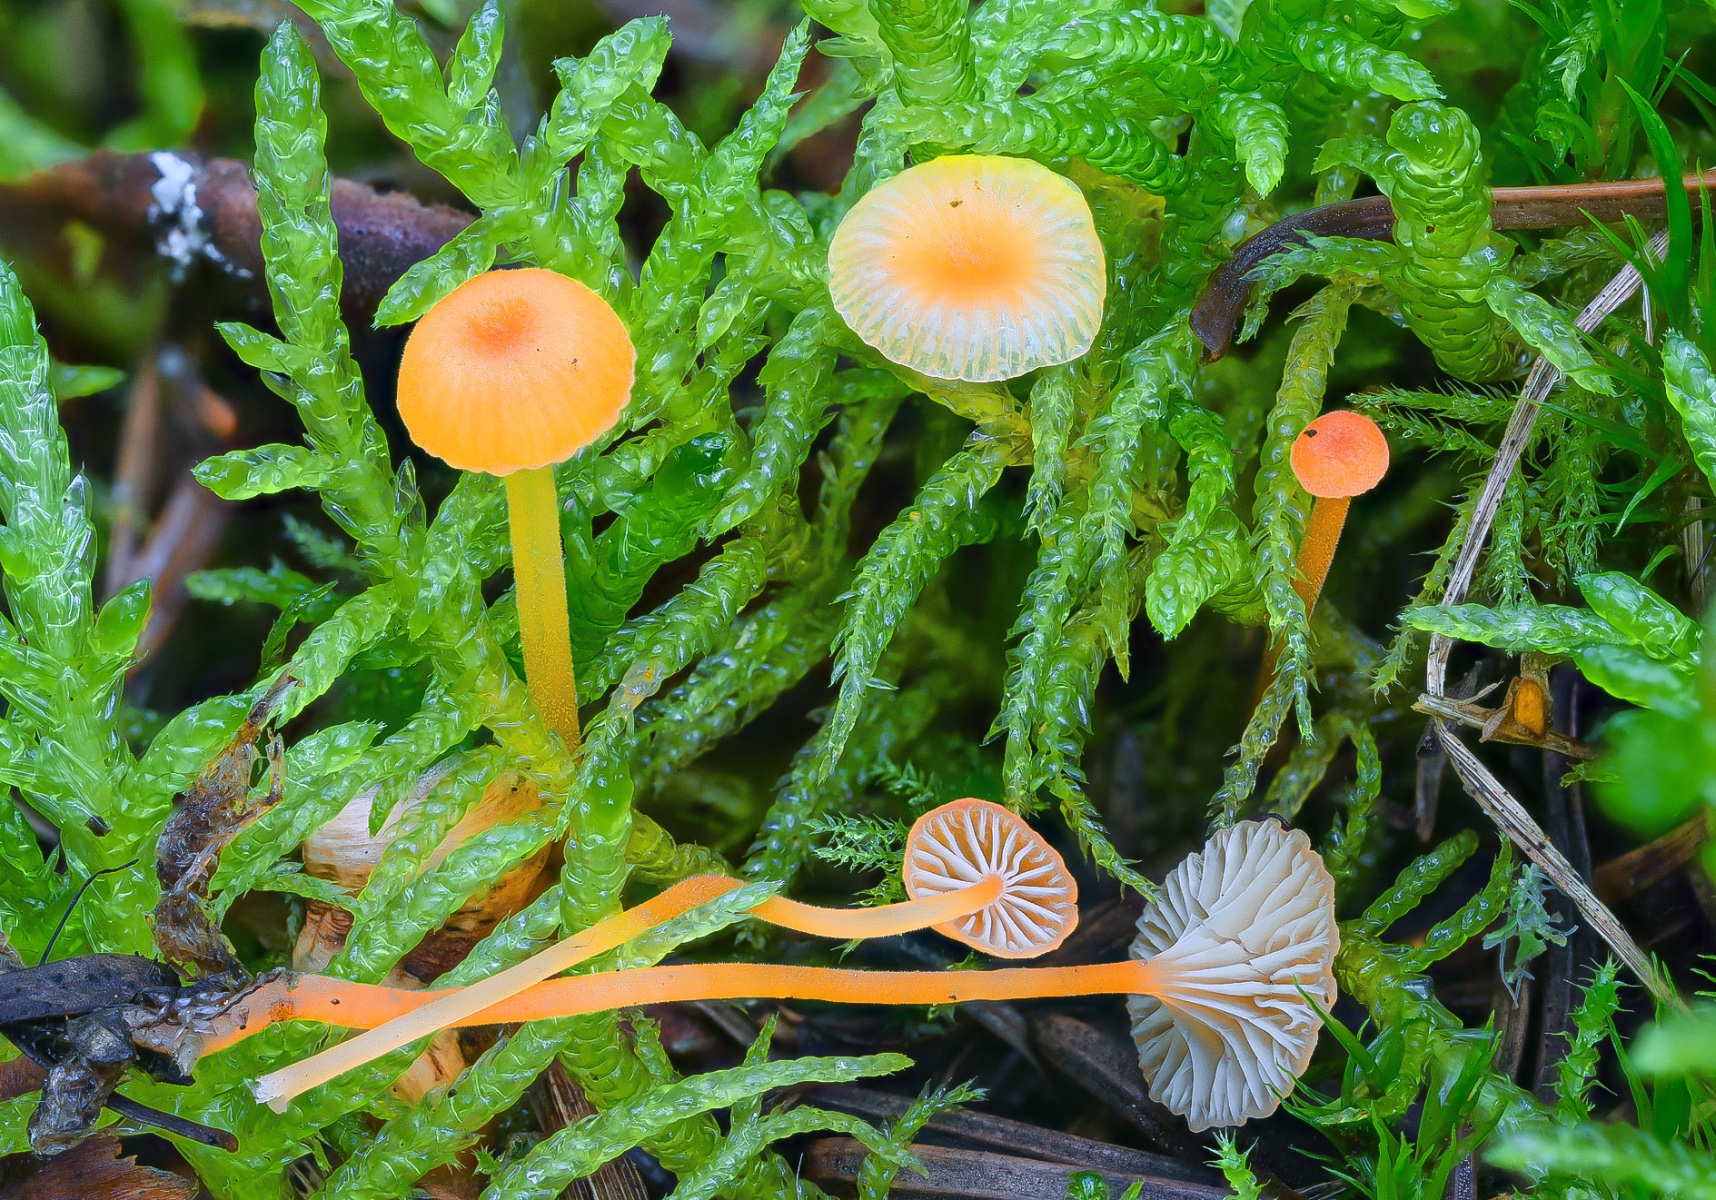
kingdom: Fungi
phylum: Basidiomycota
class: Agaricomycetes
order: Hymenochaetales
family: Rickenellaceae
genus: Rickenella
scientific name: Rickenella fibula
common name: orange mosnavlehat
